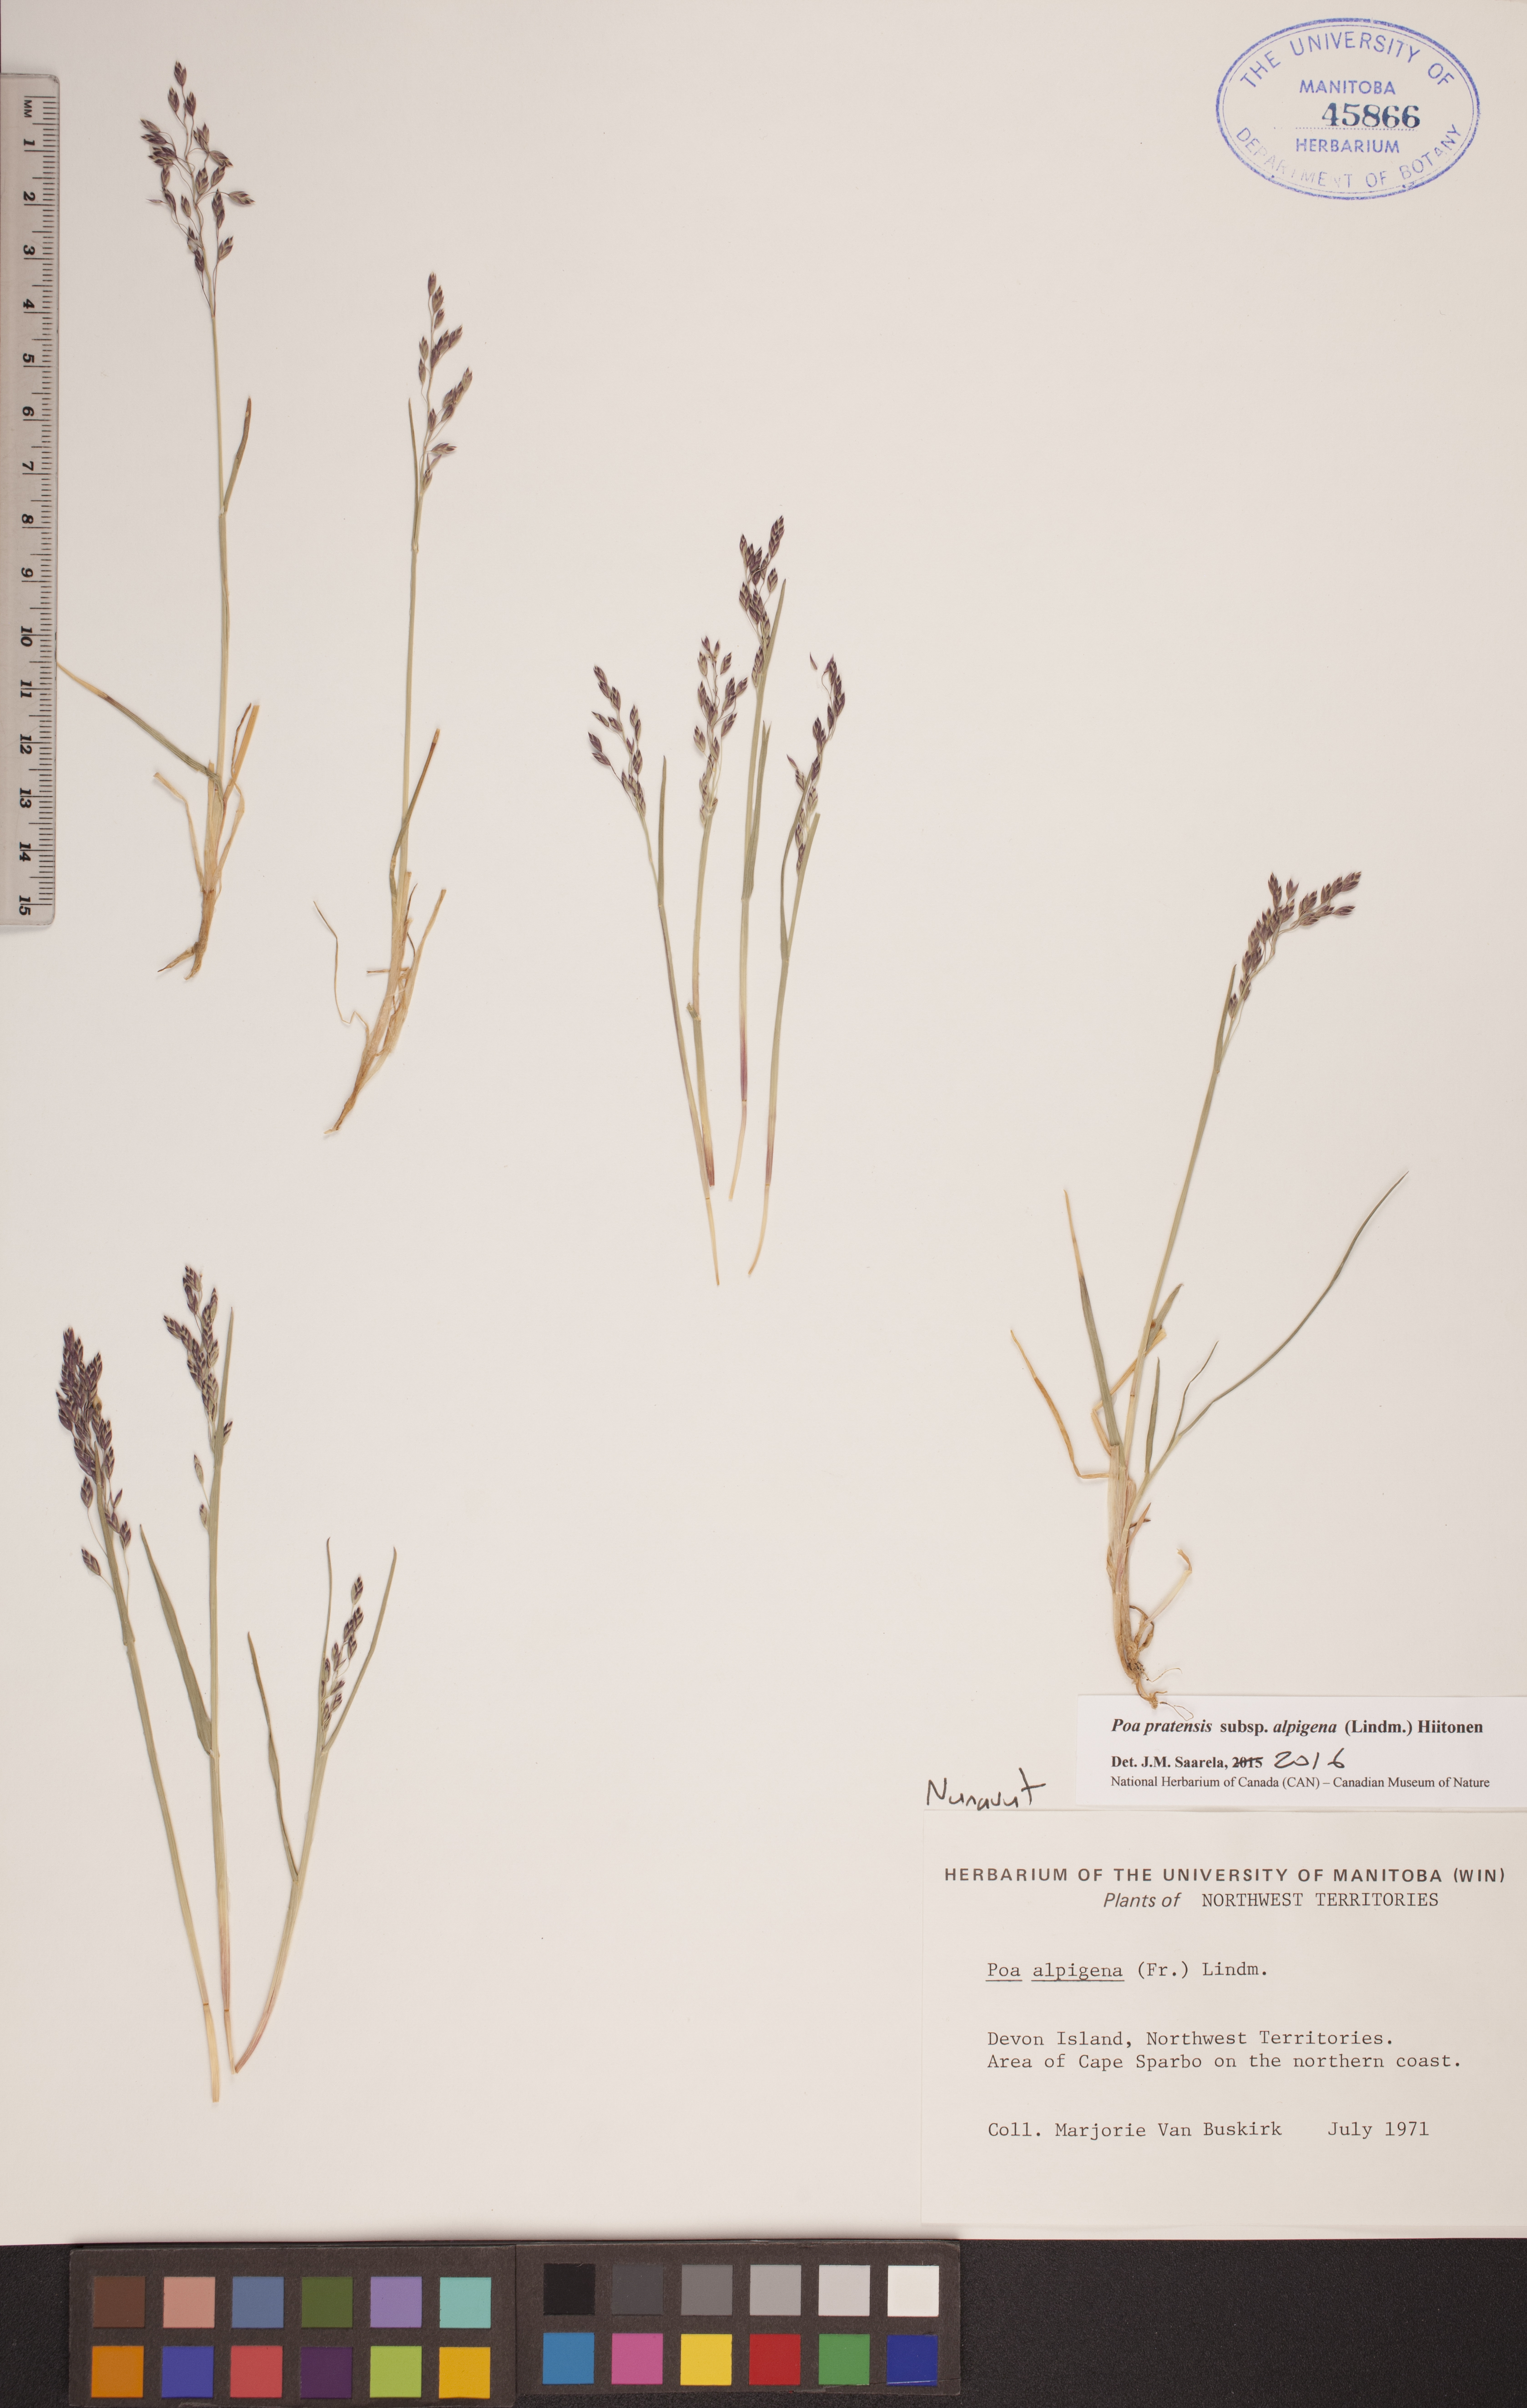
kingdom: Plantae
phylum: Tracheophyta
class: Liliopsida
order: Poales
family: Poaceae
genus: Poa
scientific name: Poa alpigena
